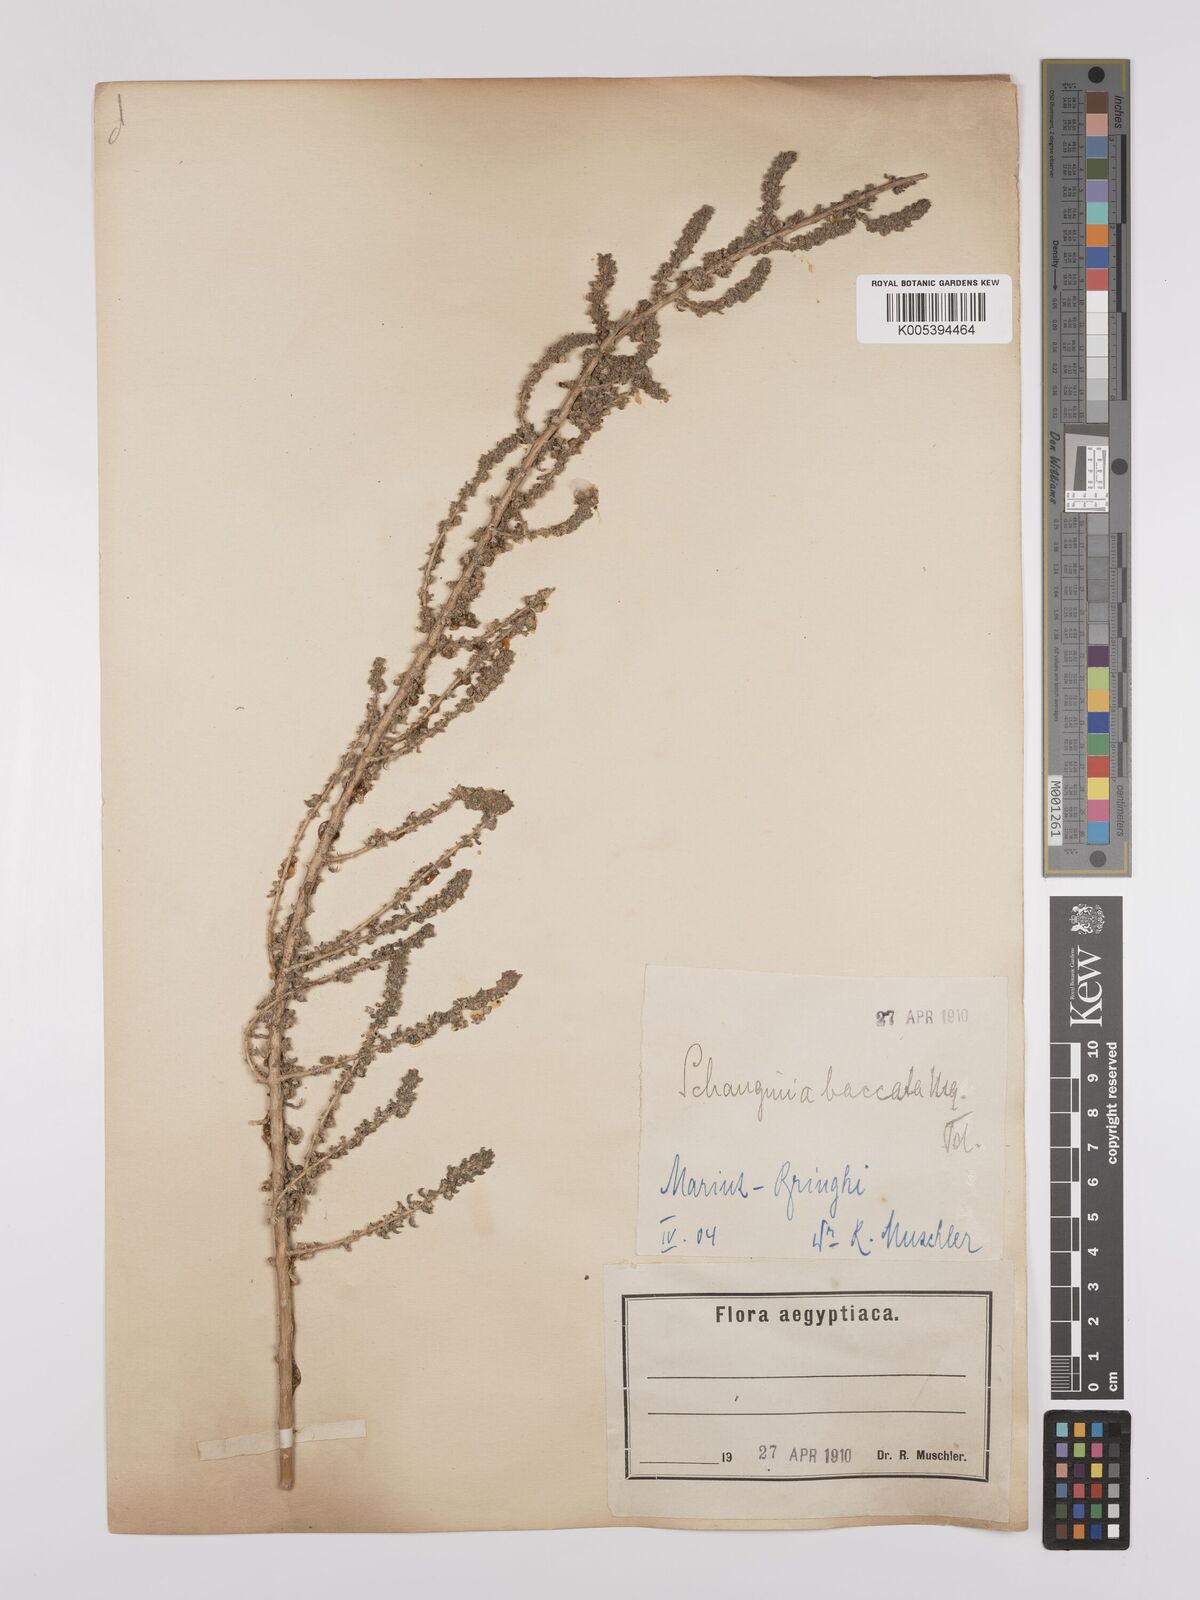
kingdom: Plantae
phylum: Tracheophyta
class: Magnoliopsida
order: Caryophyllales
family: Amaranthaceae
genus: Suaeda
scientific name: Suaeda aegyptiaca
